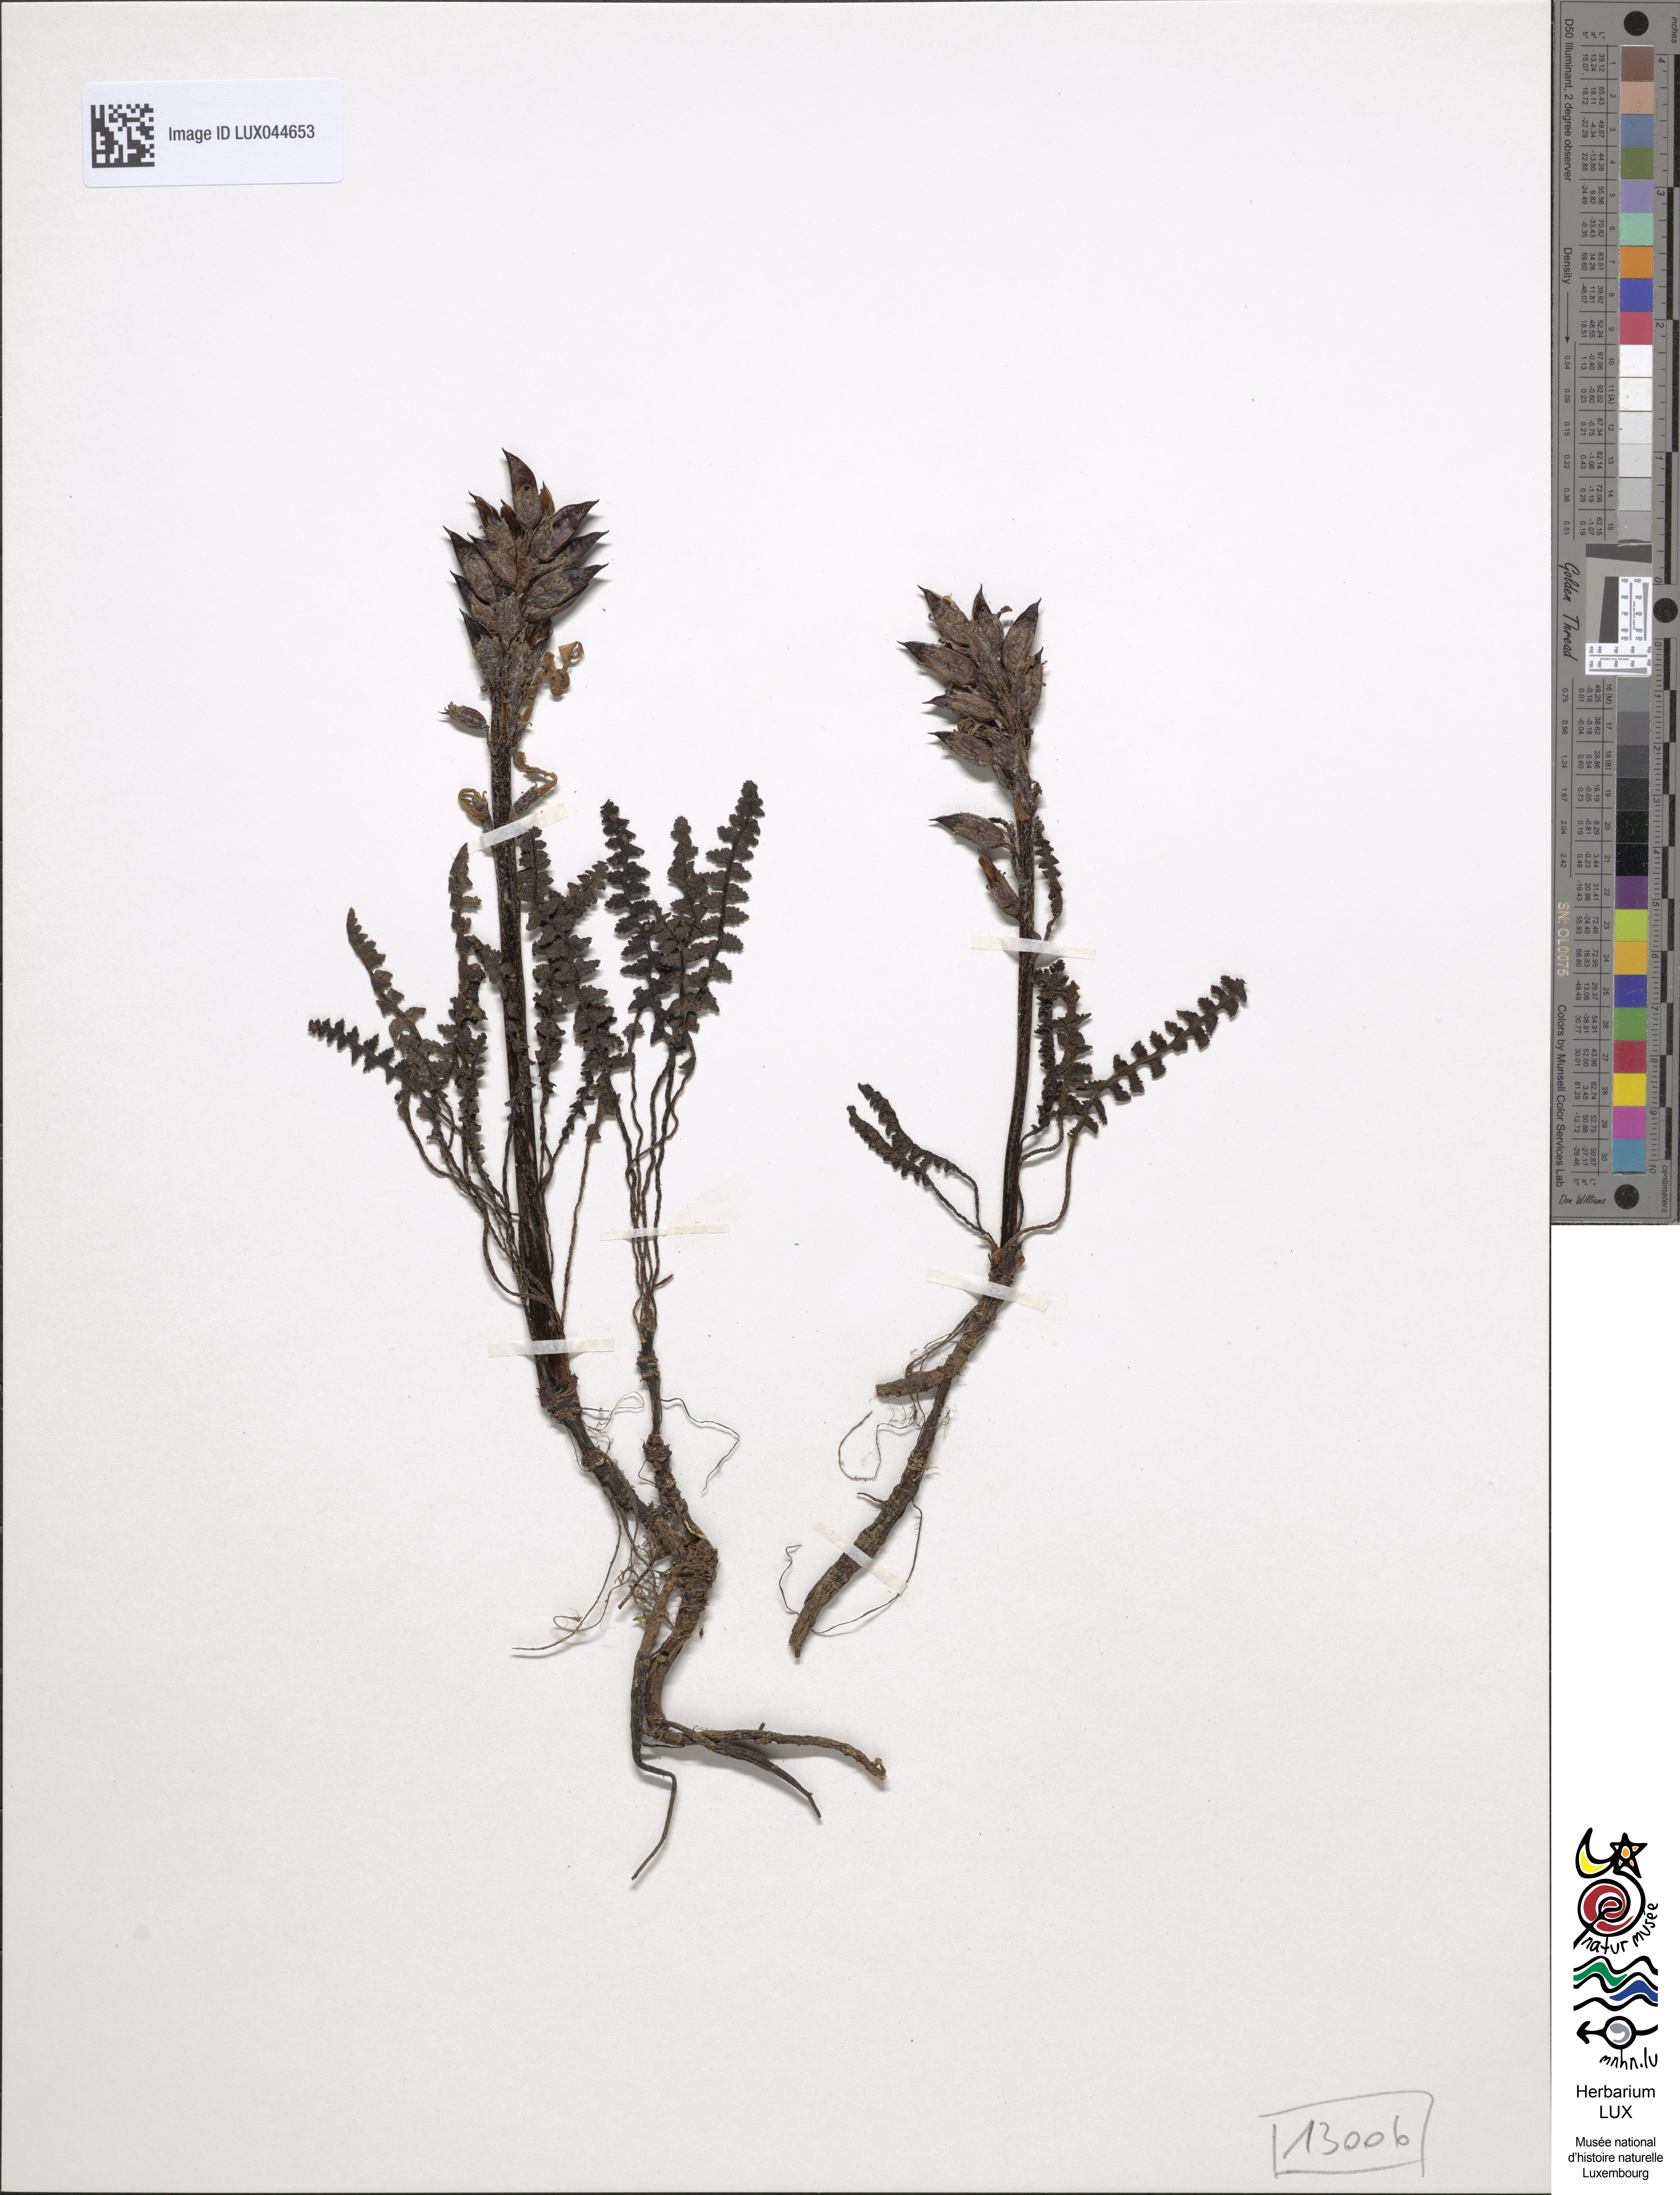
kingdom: Plantae
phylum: Tracheophyta
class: Magnoliopsida
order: Lamiales
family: Orobanchaceae
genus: Pedicularis
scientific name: Pedicularis oederi
